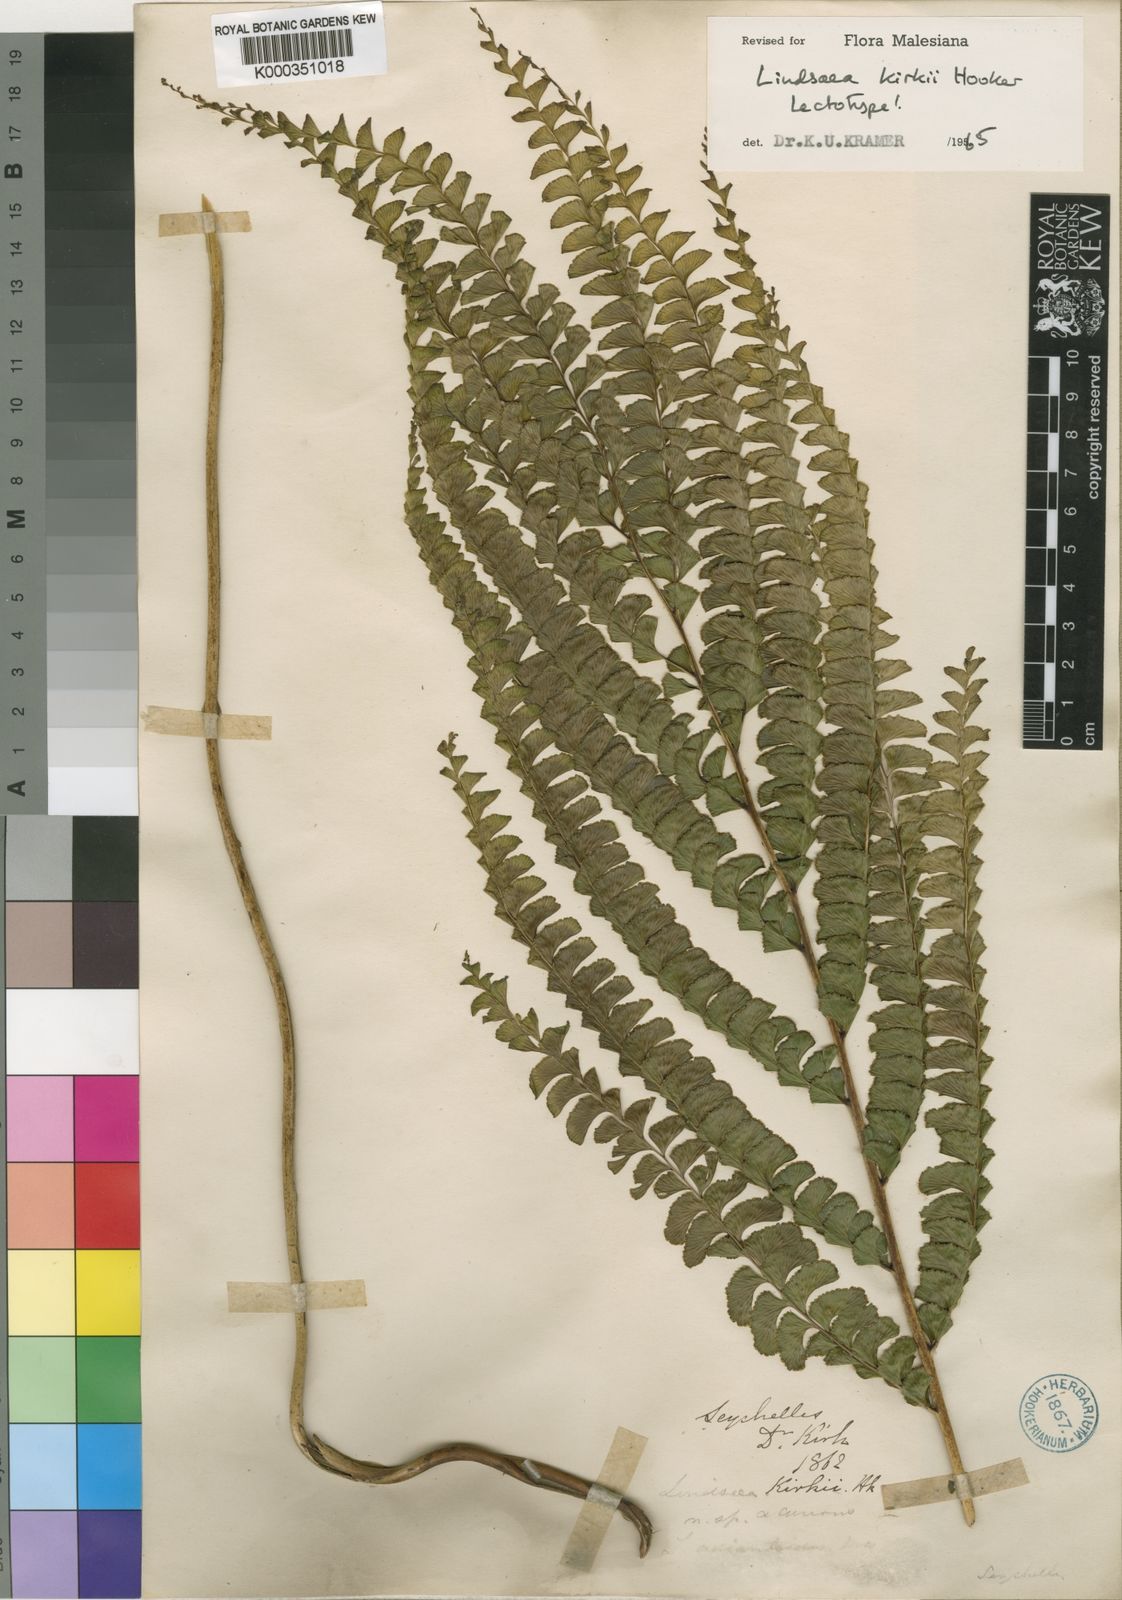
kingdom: Plantae
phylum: Tracheophyta
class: Polypodiopsida
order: Polypodiales
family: Lindsaeaceae
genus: Nesolindsaea
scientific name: Nesolindsaea kirkii
